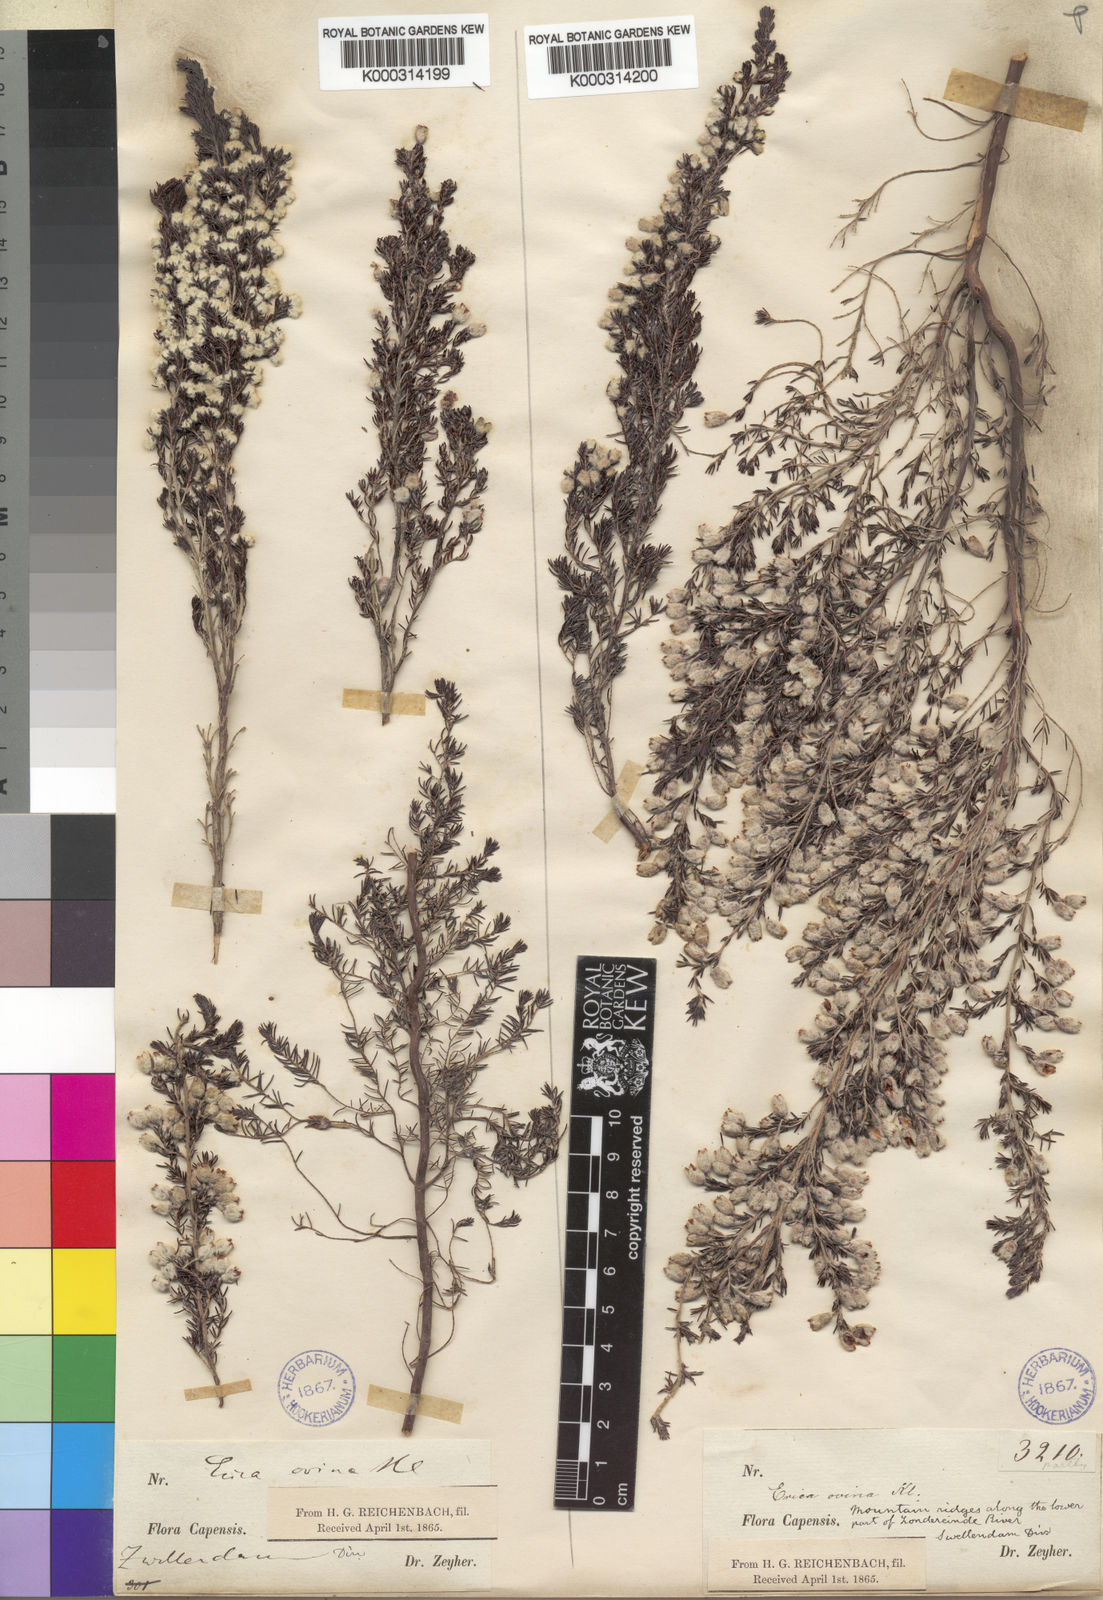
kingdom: Plantae
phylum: Tracheophyta
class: Magnoliopsida
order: Ericales
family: Ericaceae
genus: Erica
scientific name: Erica
